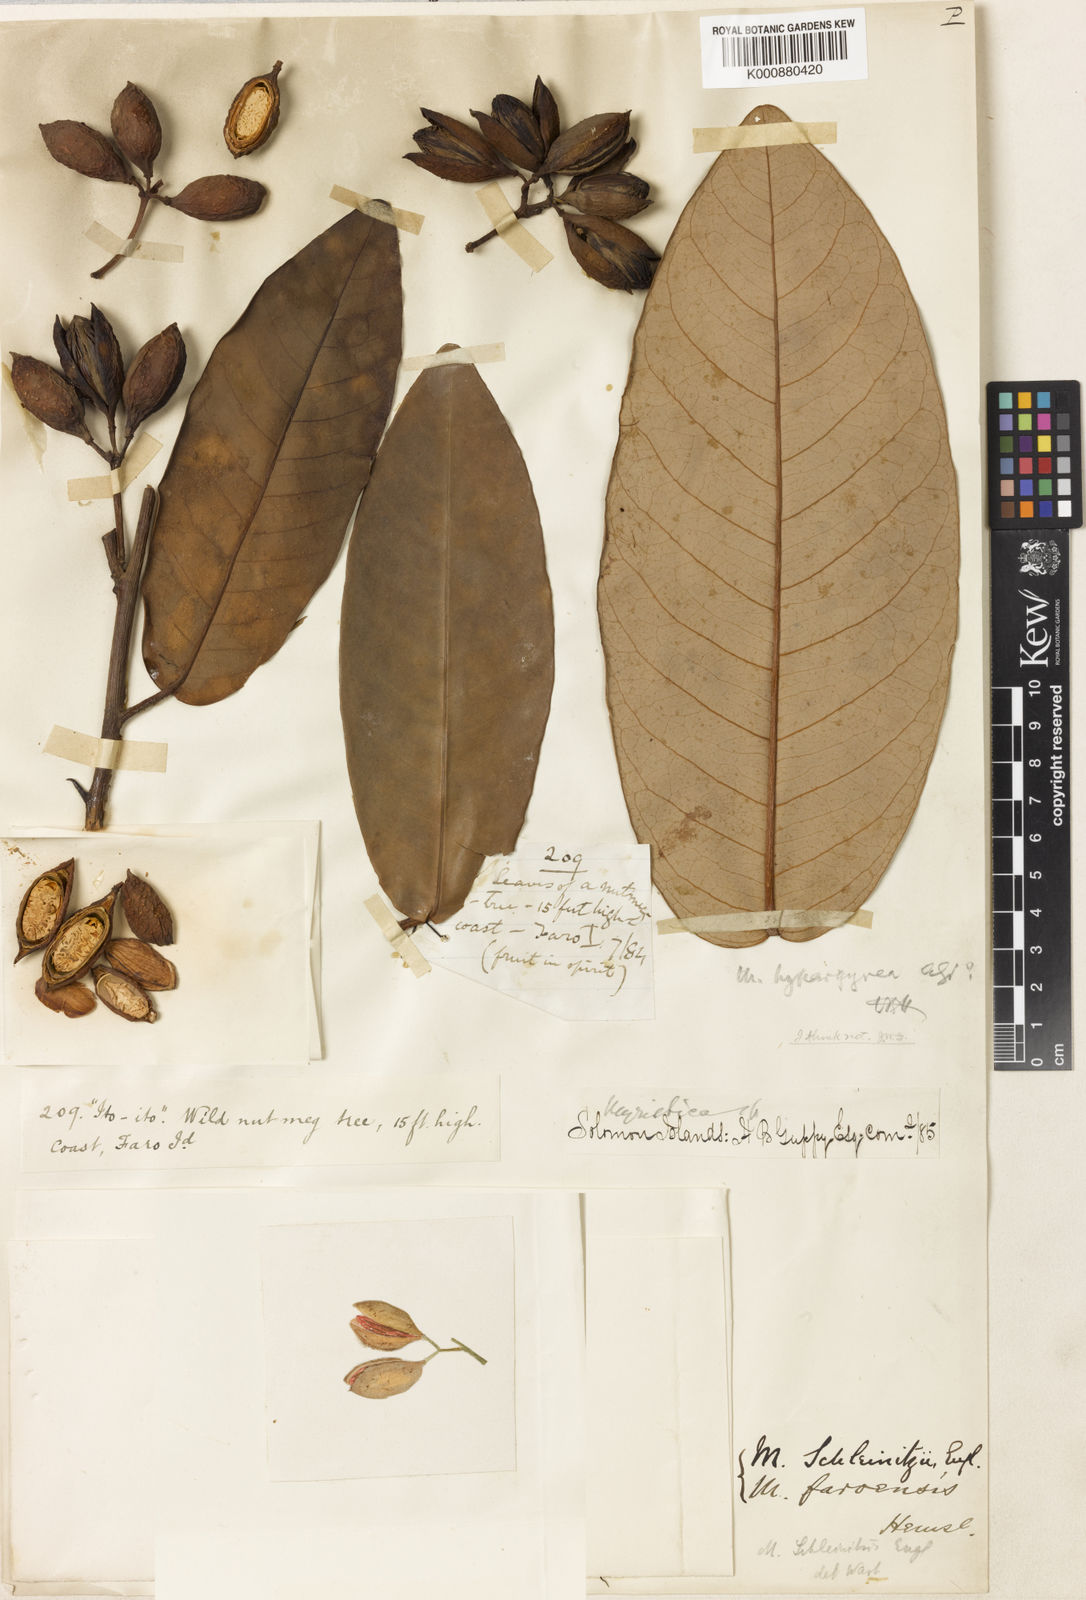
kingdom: Plantae
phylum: Tracheophyta
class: Magnoliopsida
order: Magnoliales
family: Myristicaceae
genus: Myristica
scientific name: Myristica schleinitzii
